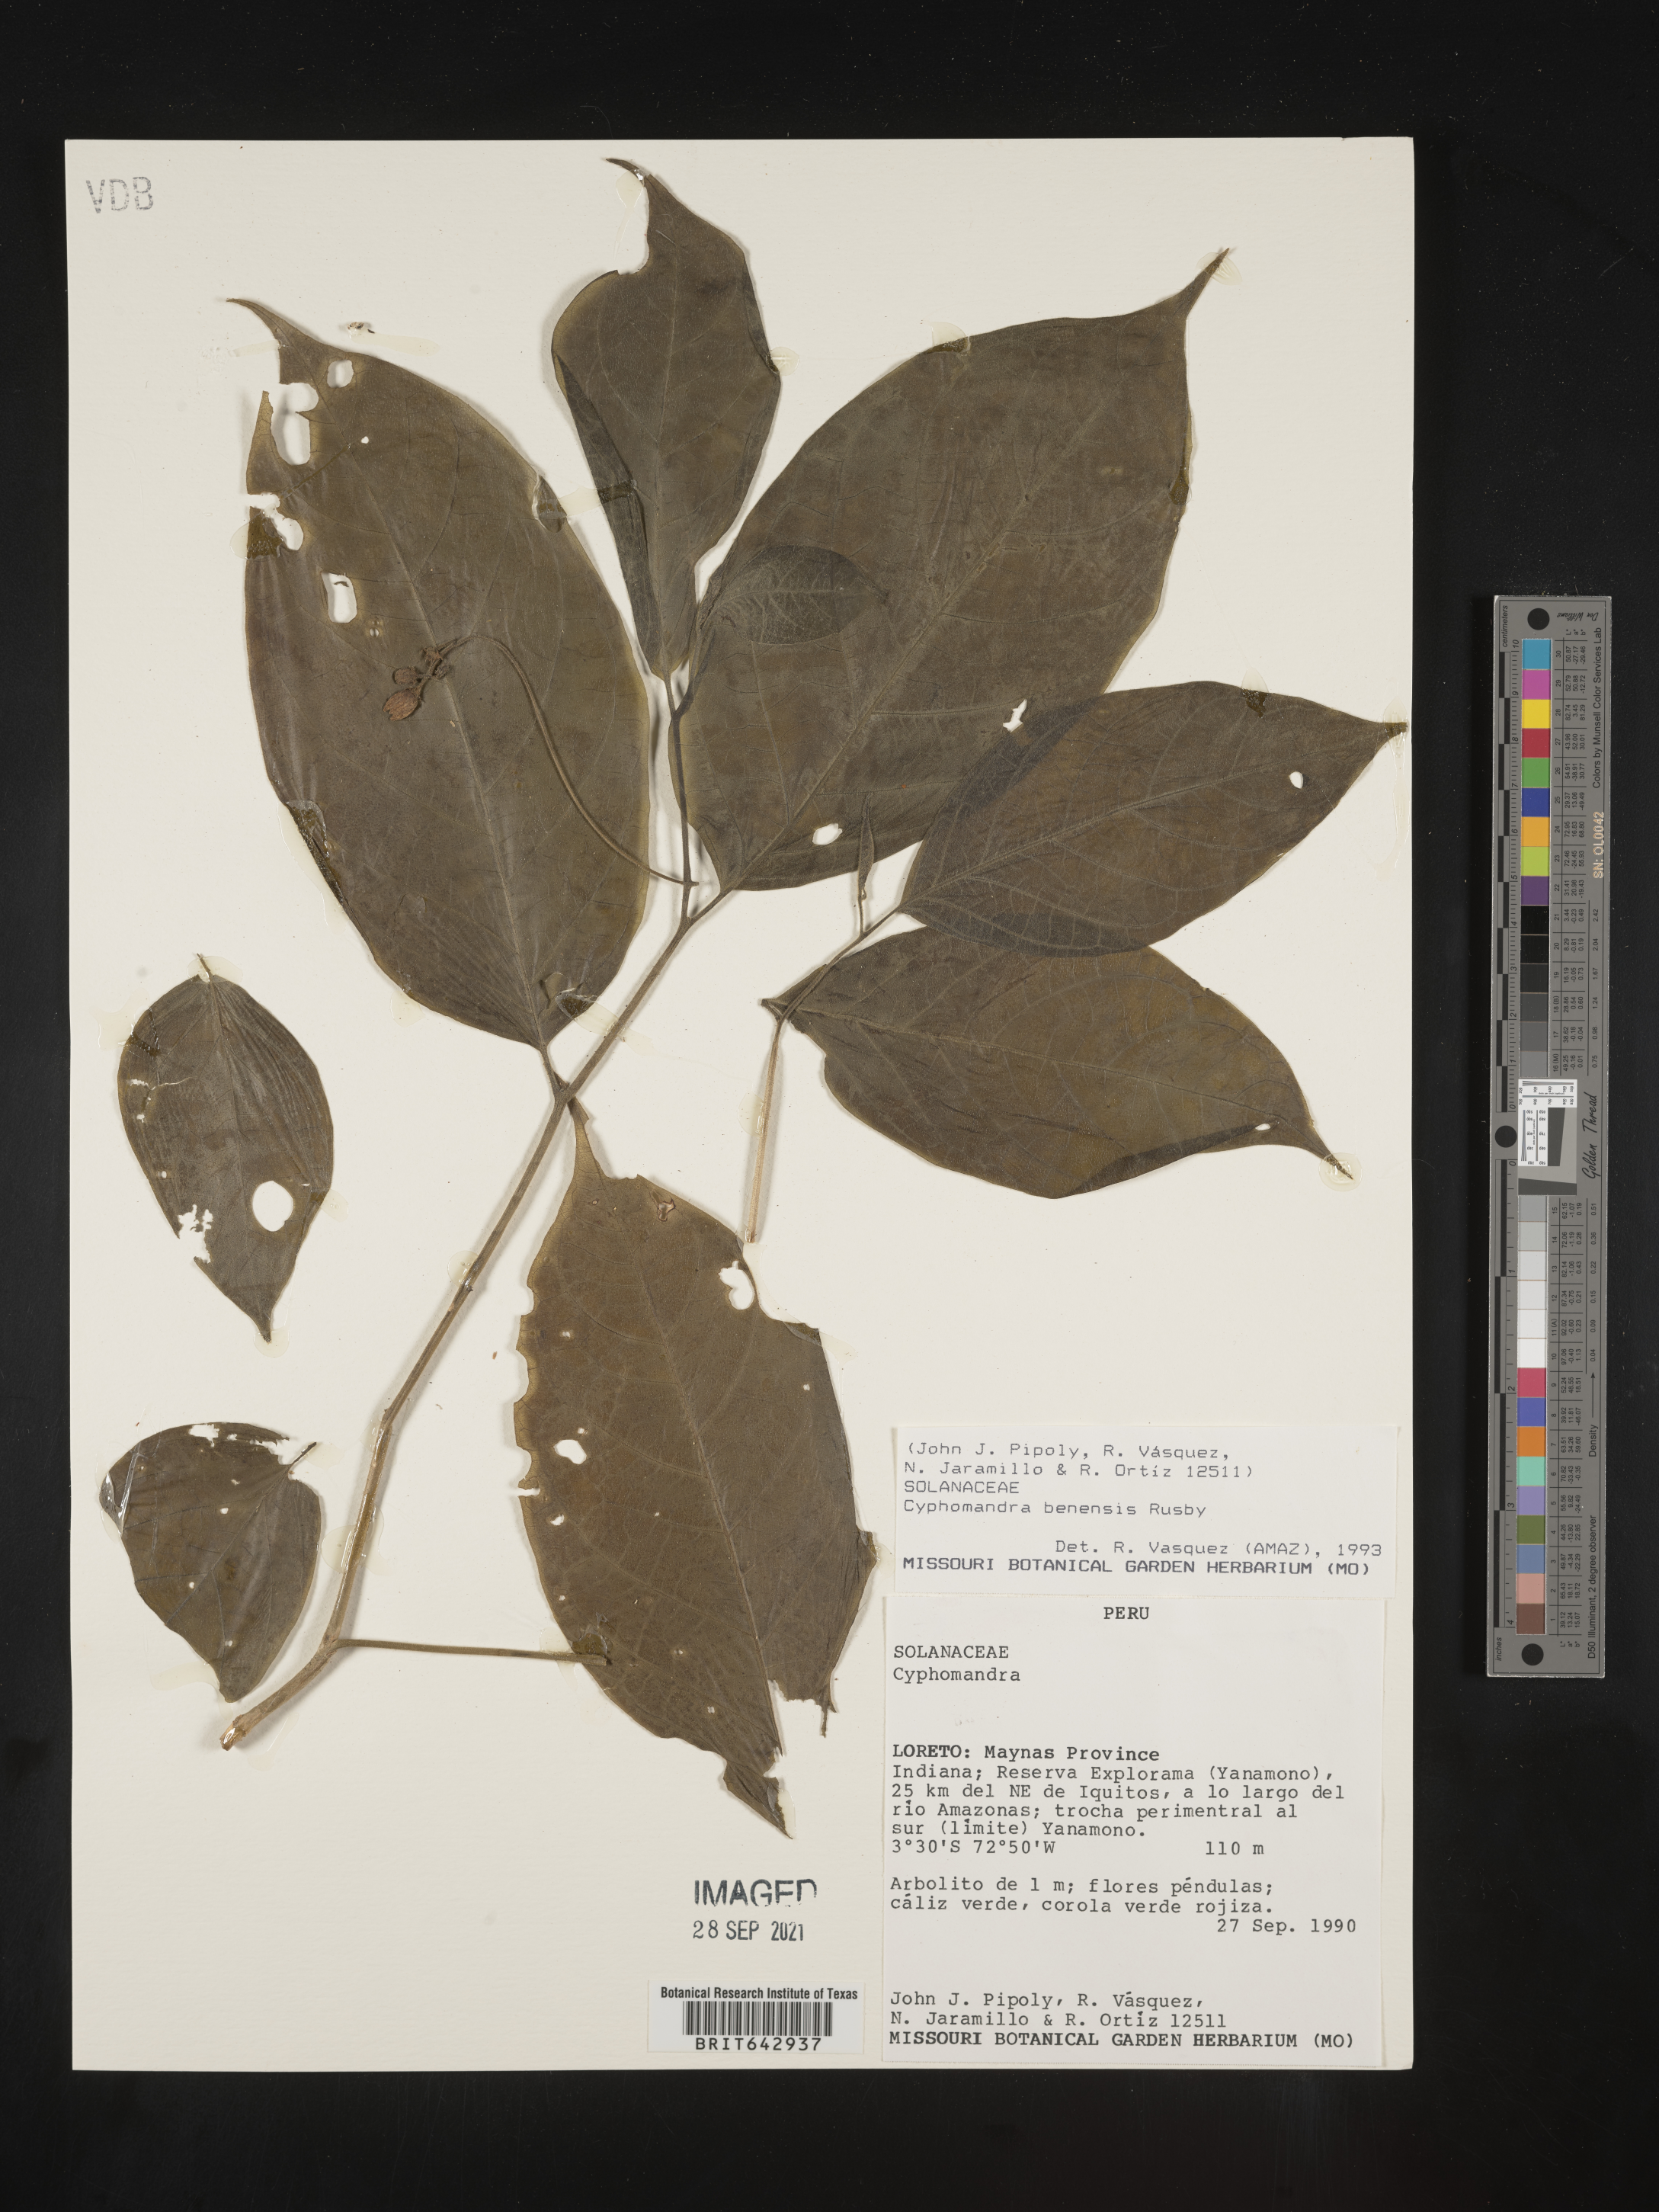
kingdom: Plantae
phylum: Tracheophyta
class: Magnoliopsida
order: Solanales
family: Solanaceae
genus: Solanum
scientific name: Solanum
